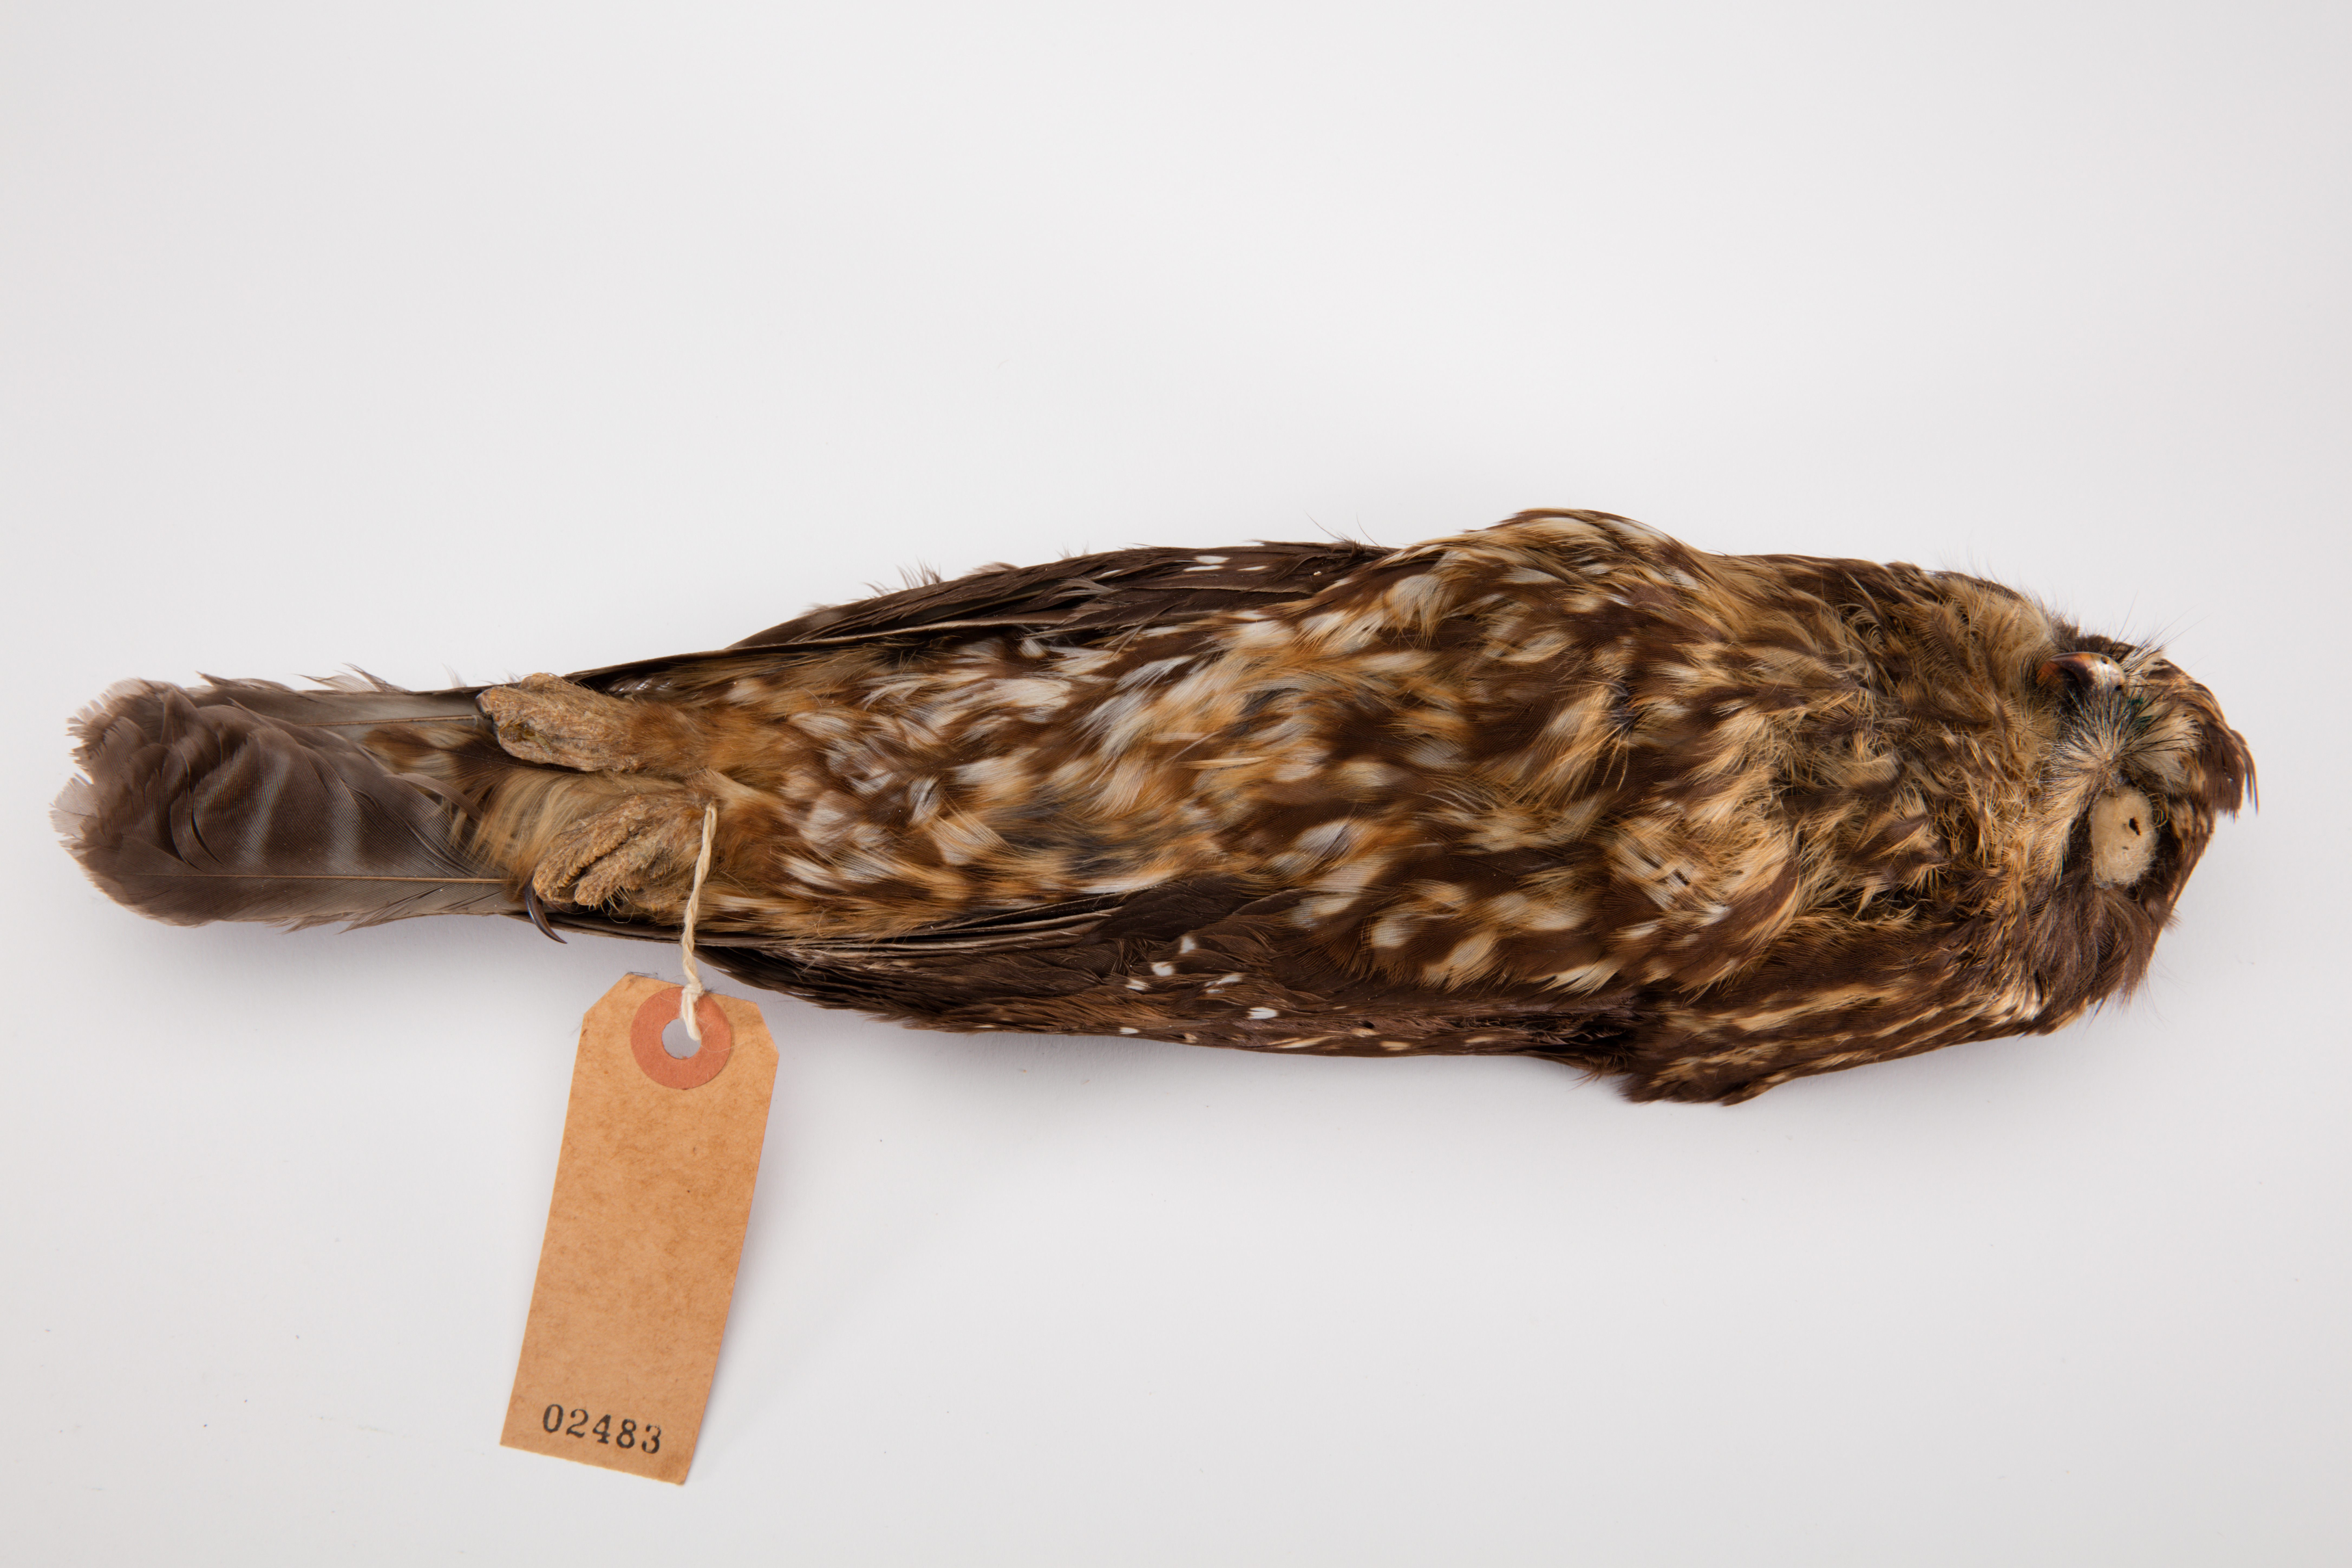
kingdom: Animalia
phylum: Chordata
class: Aves
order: Strigiformes
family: Strigidae
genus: Ninox
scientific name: Ninox novaeseelandiae
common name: Morepork
